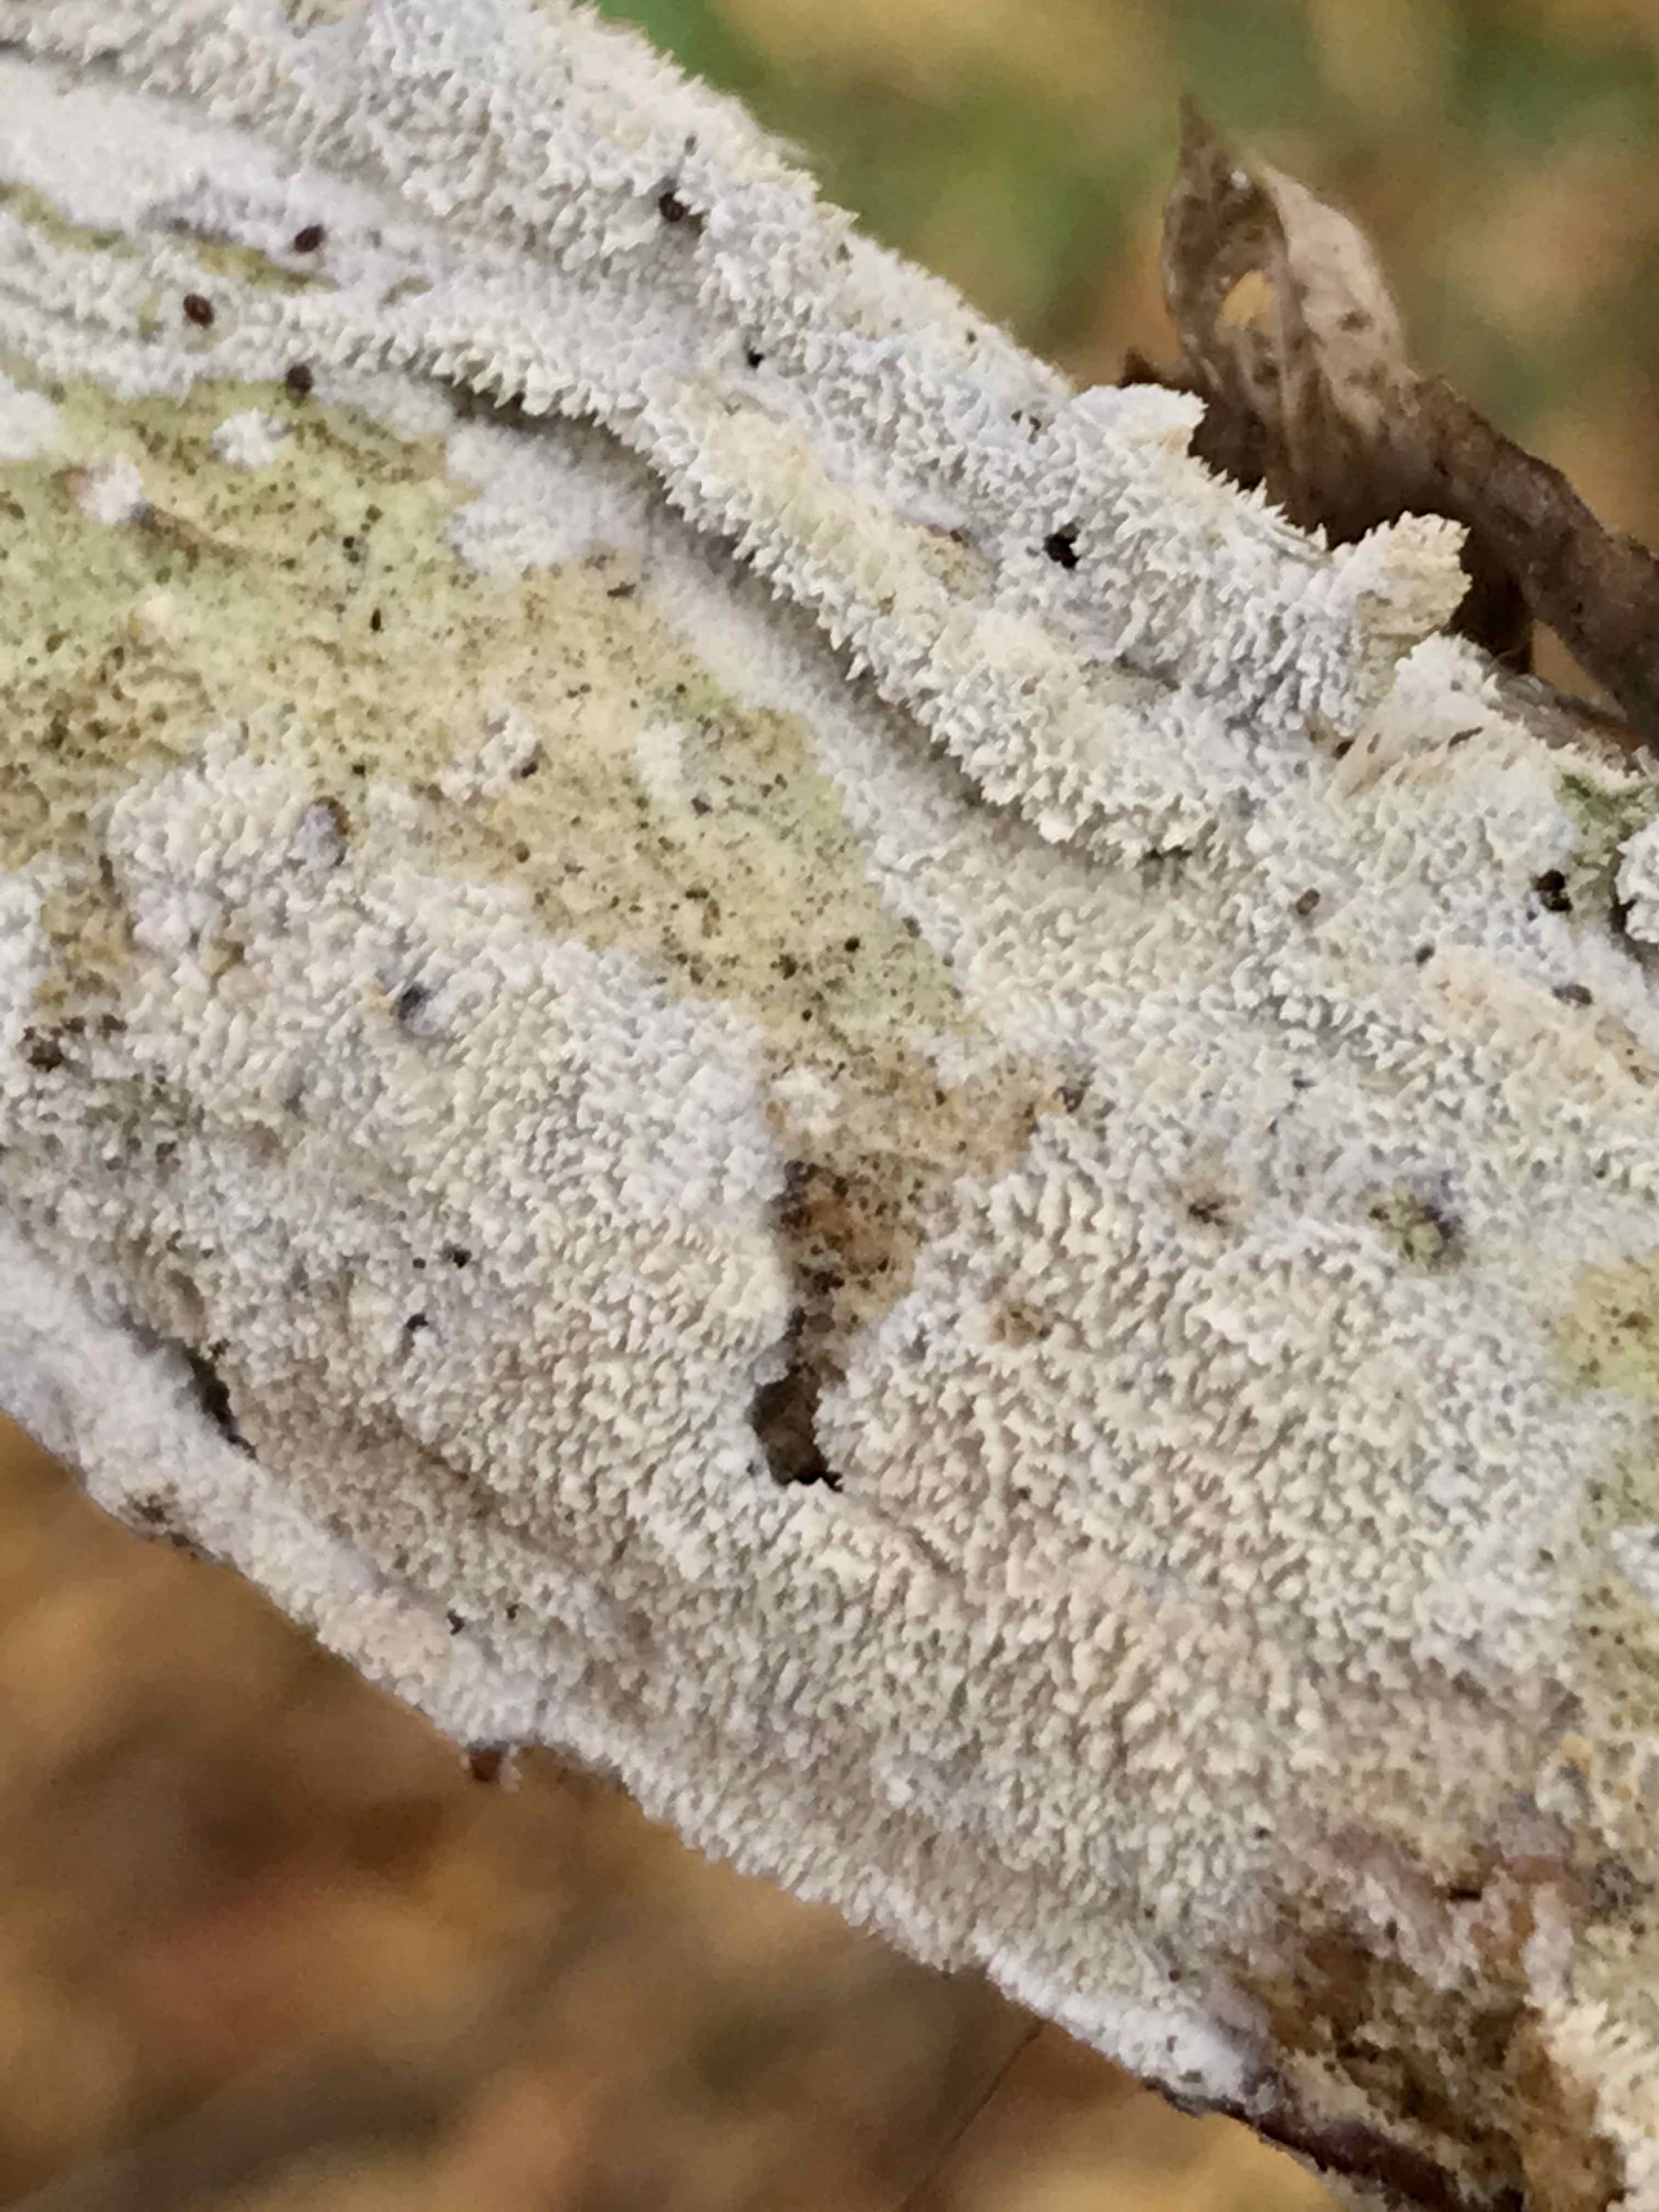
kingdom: Fungi
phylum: Basidiomycota
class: Agaricomycetes
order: Hymenochaetales
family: Schizoporaceae
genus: Schizopora
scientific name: Schizopora paradoxa
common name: hvid tandsvamp
